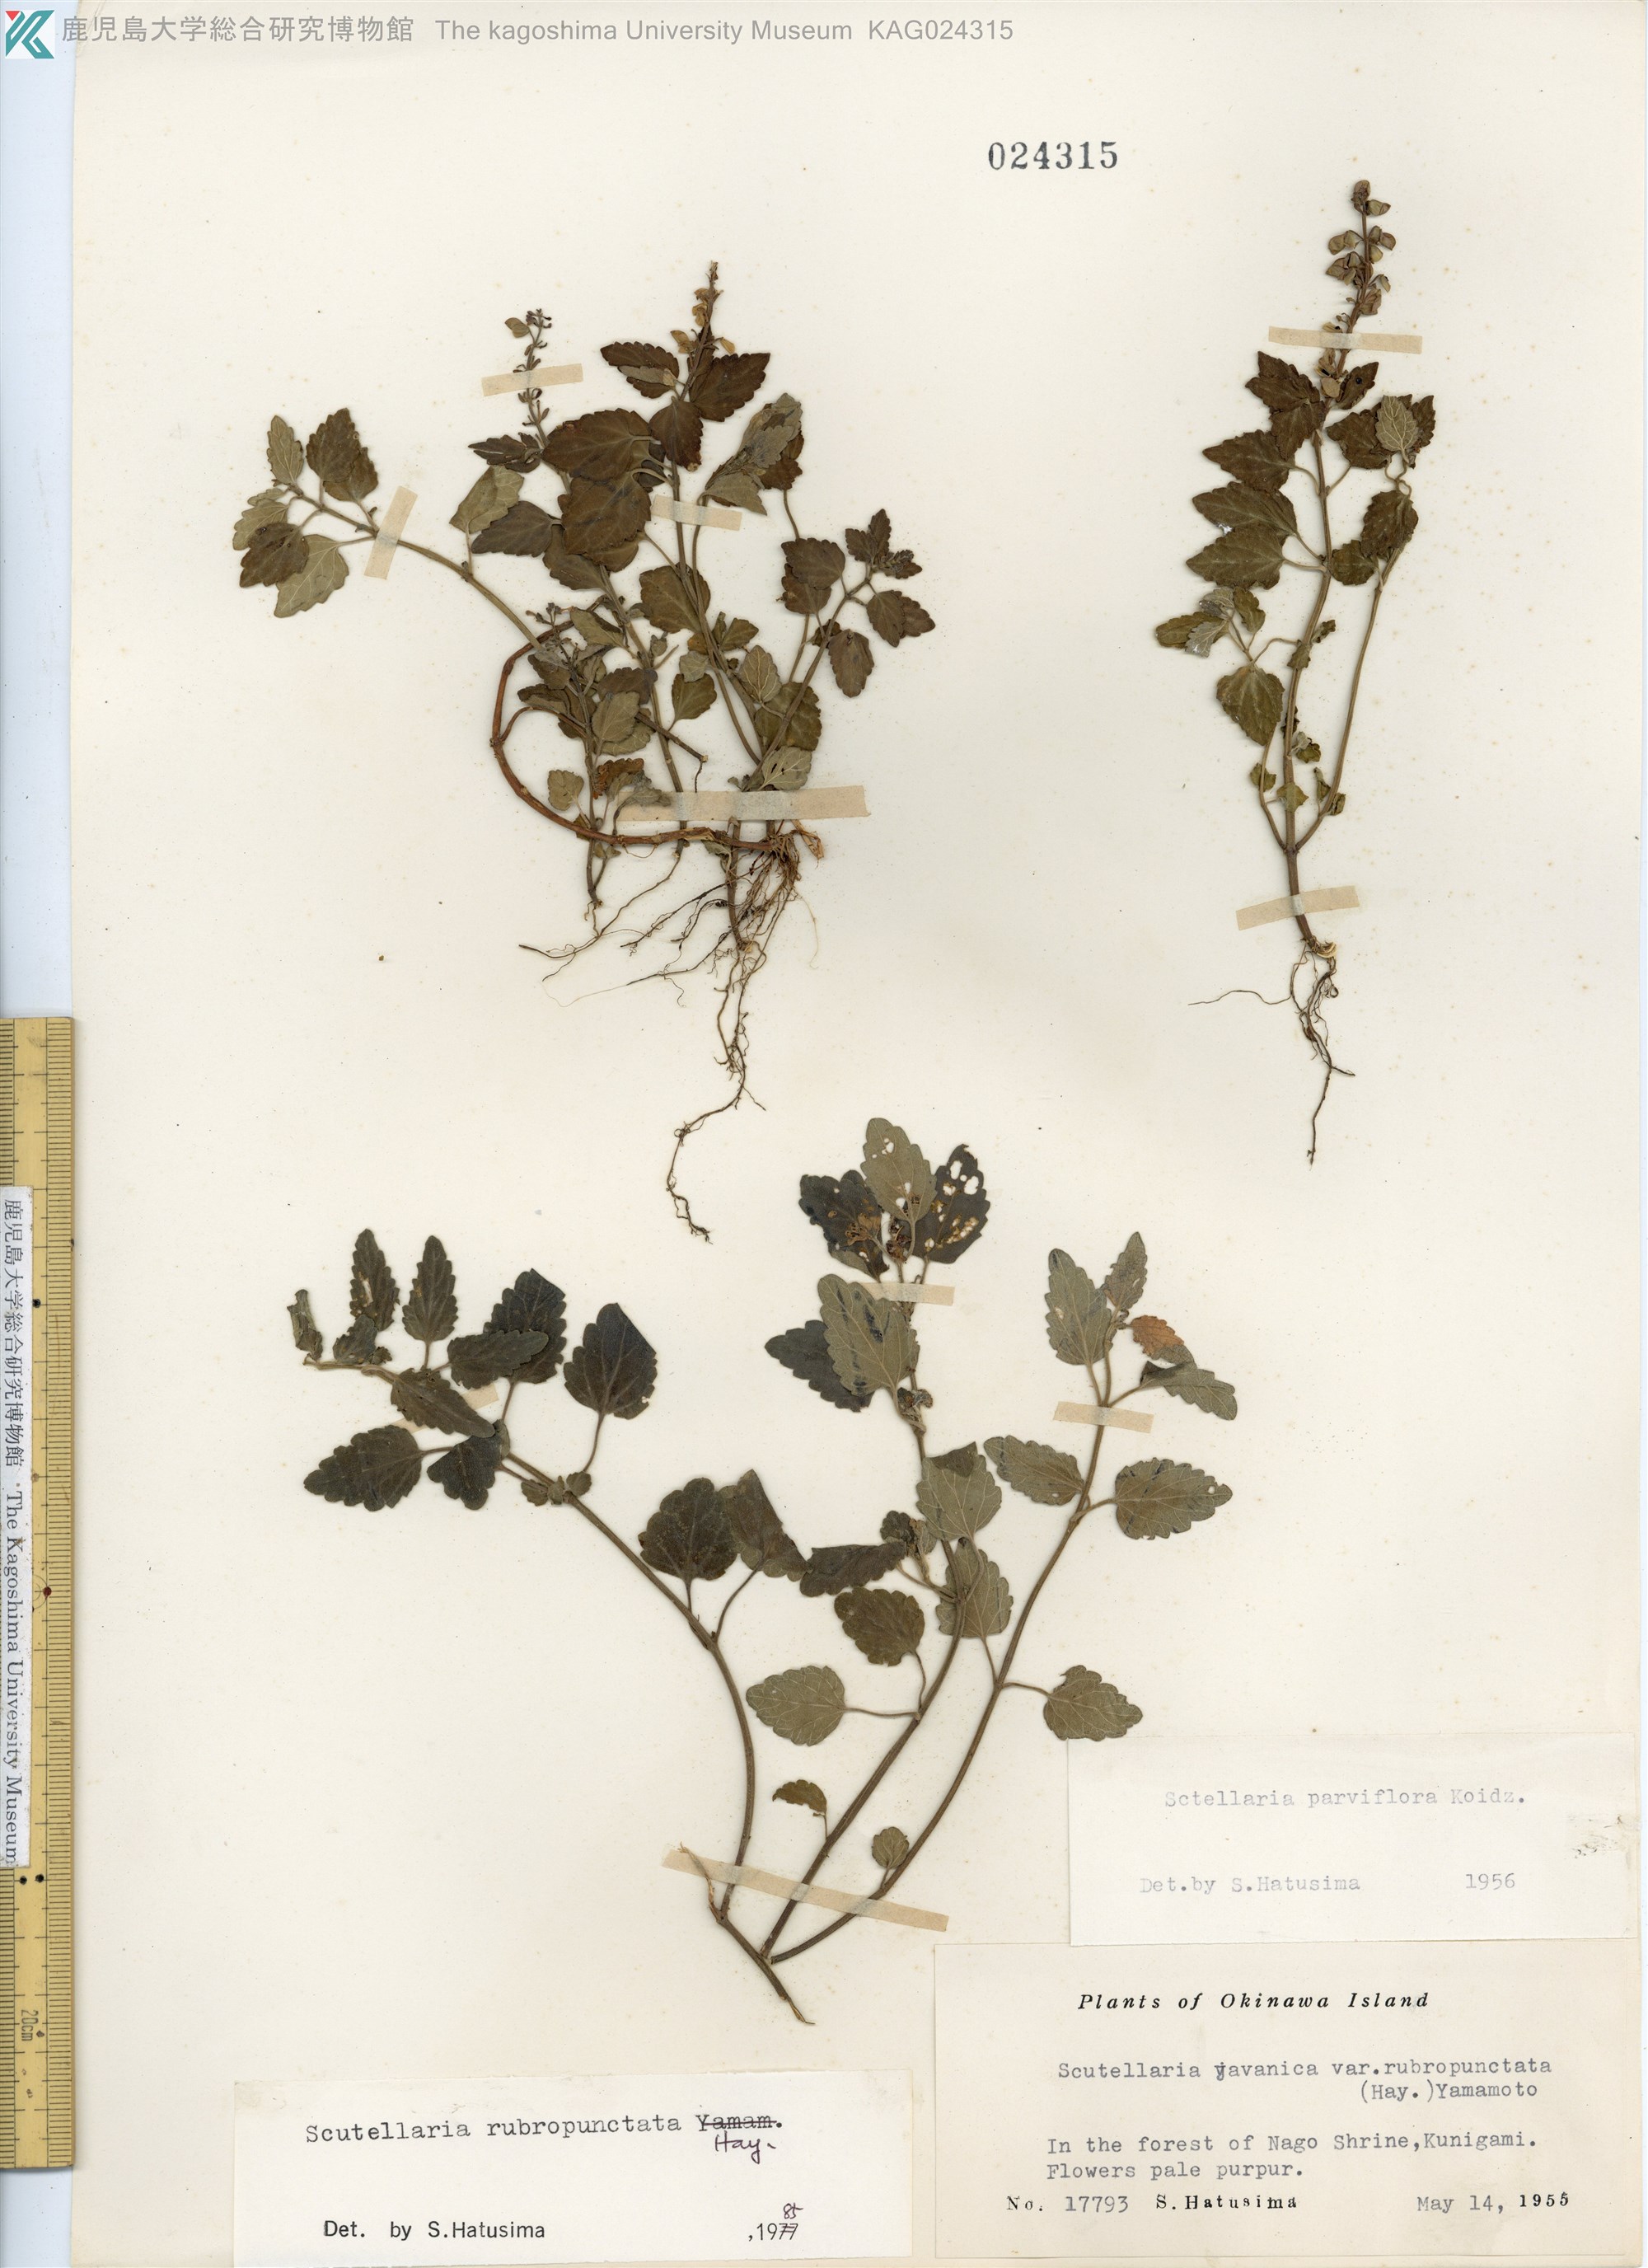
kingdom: Plantae
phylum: Tracheophyta
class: Magnoliopsida
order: Lamiales
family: Lamiaceae
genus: Scutellaria
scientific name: Scutellaria rubropunctata
